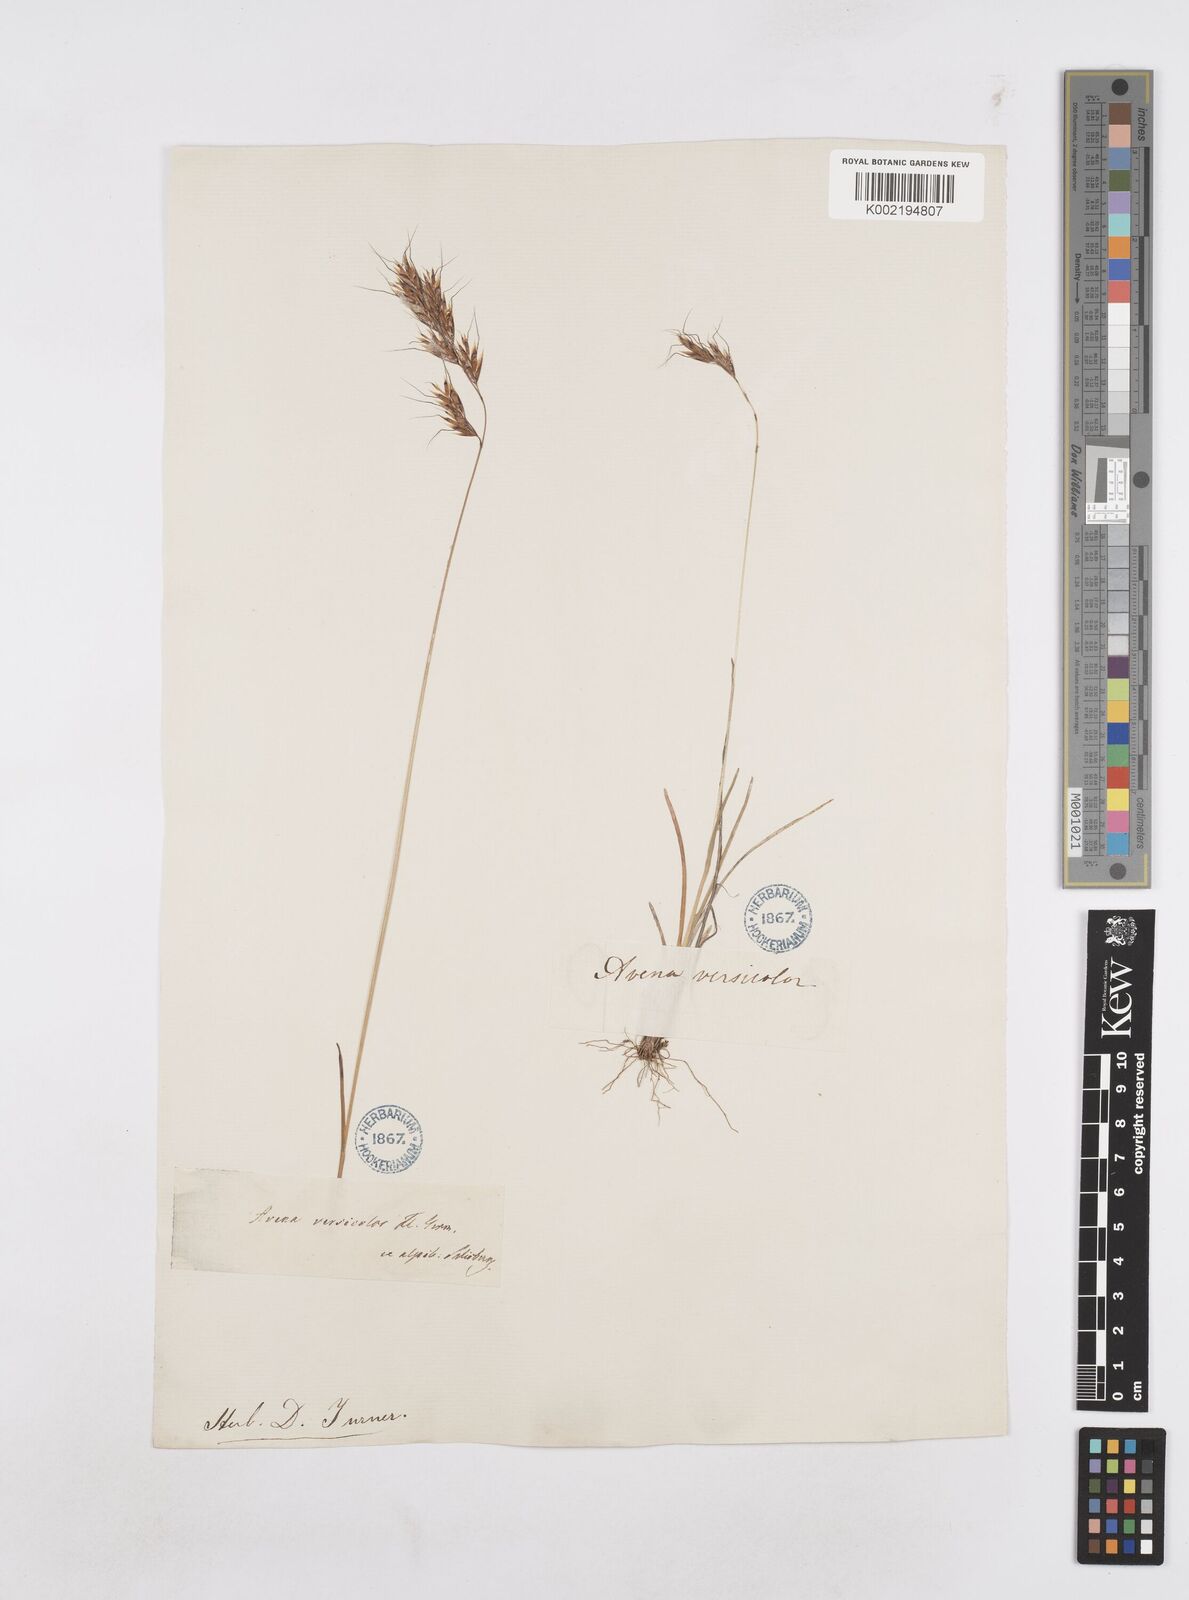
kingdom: Plantae
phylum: Tracheophyta
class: Liliopsida
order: Poales
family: Poaceae
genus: Helictochloa
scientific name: Helictochloa versicolor
